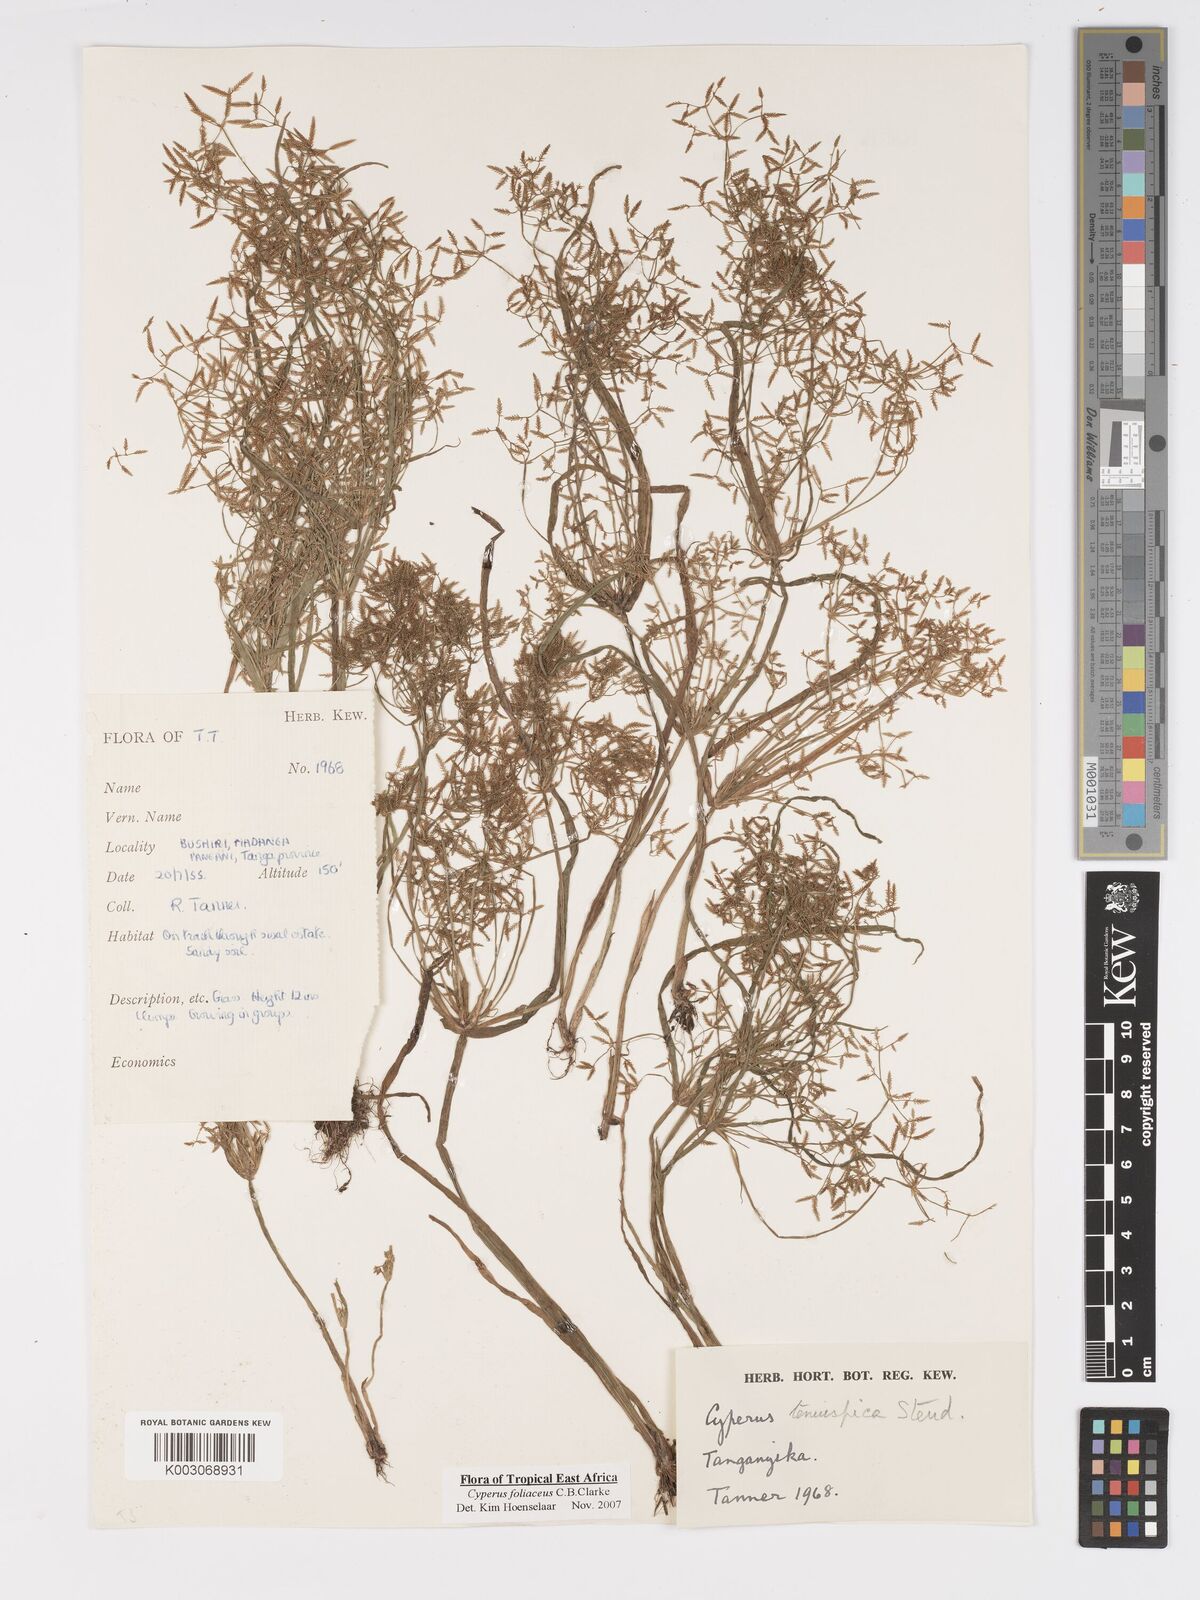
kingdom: Plantae
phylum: Tracheophyta
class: Liliopsida
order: Poales
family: Cyperaceae
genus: Cyperus
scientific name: Cyperus foliaceus
